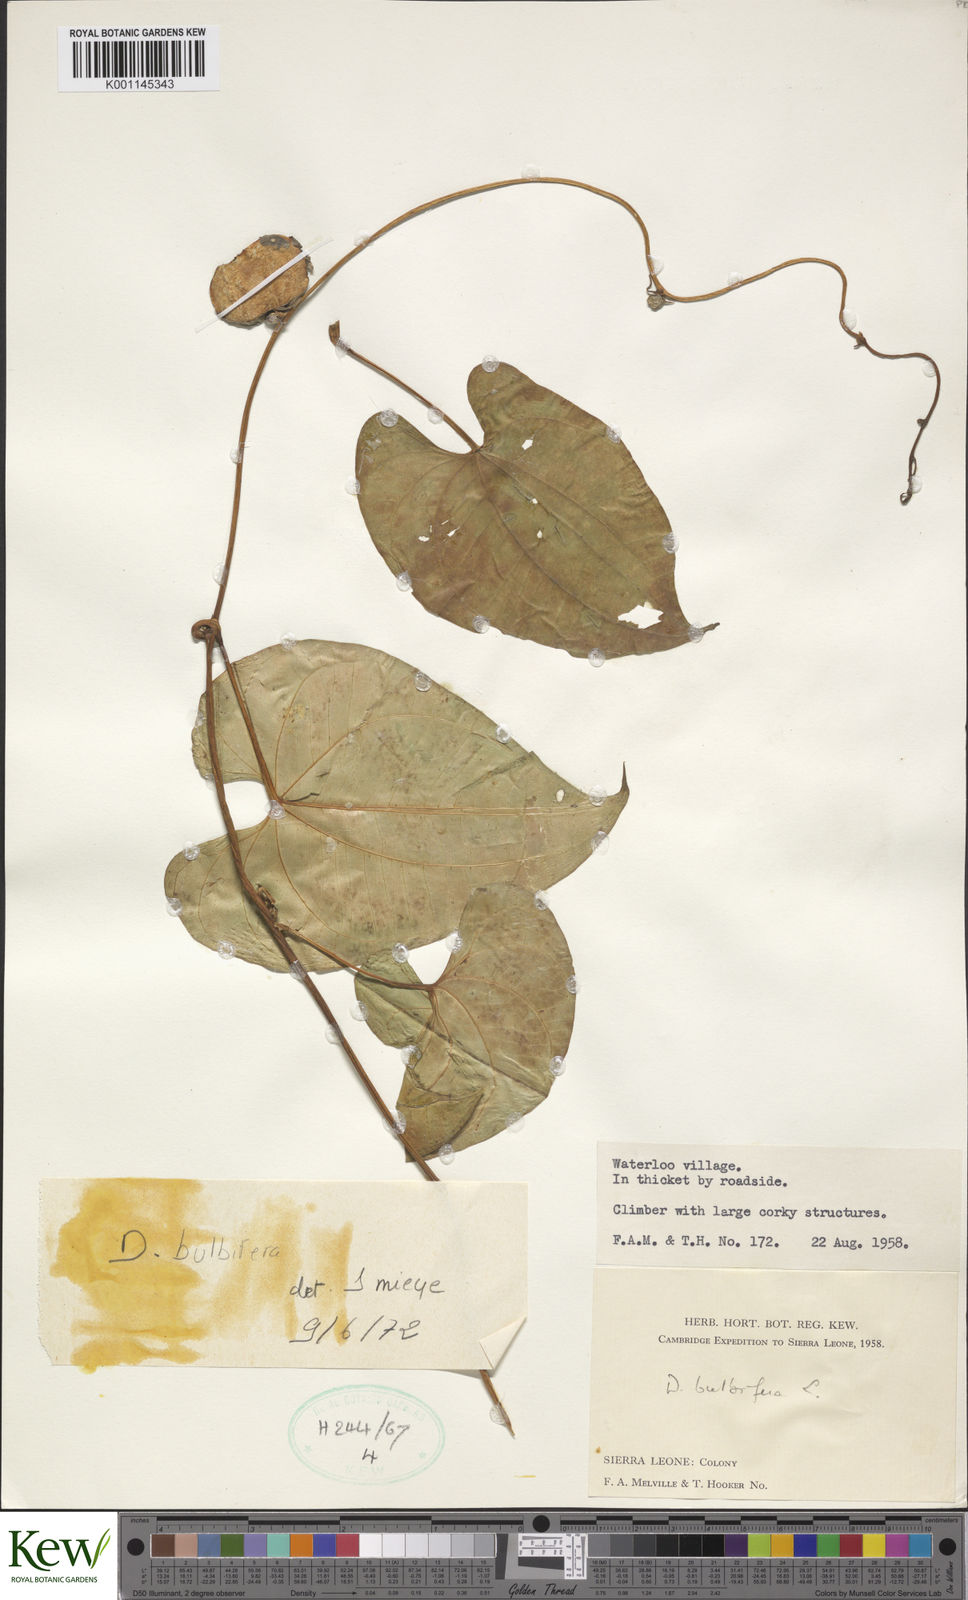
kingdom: Plantae
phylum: Tracheophyta
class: Liliopsida
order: Dioscoreales
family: Dioscoreaceae
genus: Dioscorea
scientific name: Dioscorea bulbifera
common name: Air yam
